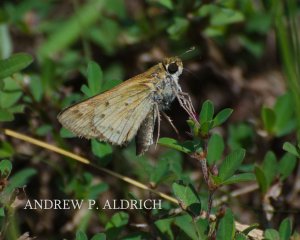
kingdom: Animalia
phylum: Arthropoda
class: Insecta
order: Lepidoptera
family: Hesperiidae
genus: Hylephila
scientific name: Hylephila phyleus
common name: Fiery Skipper
